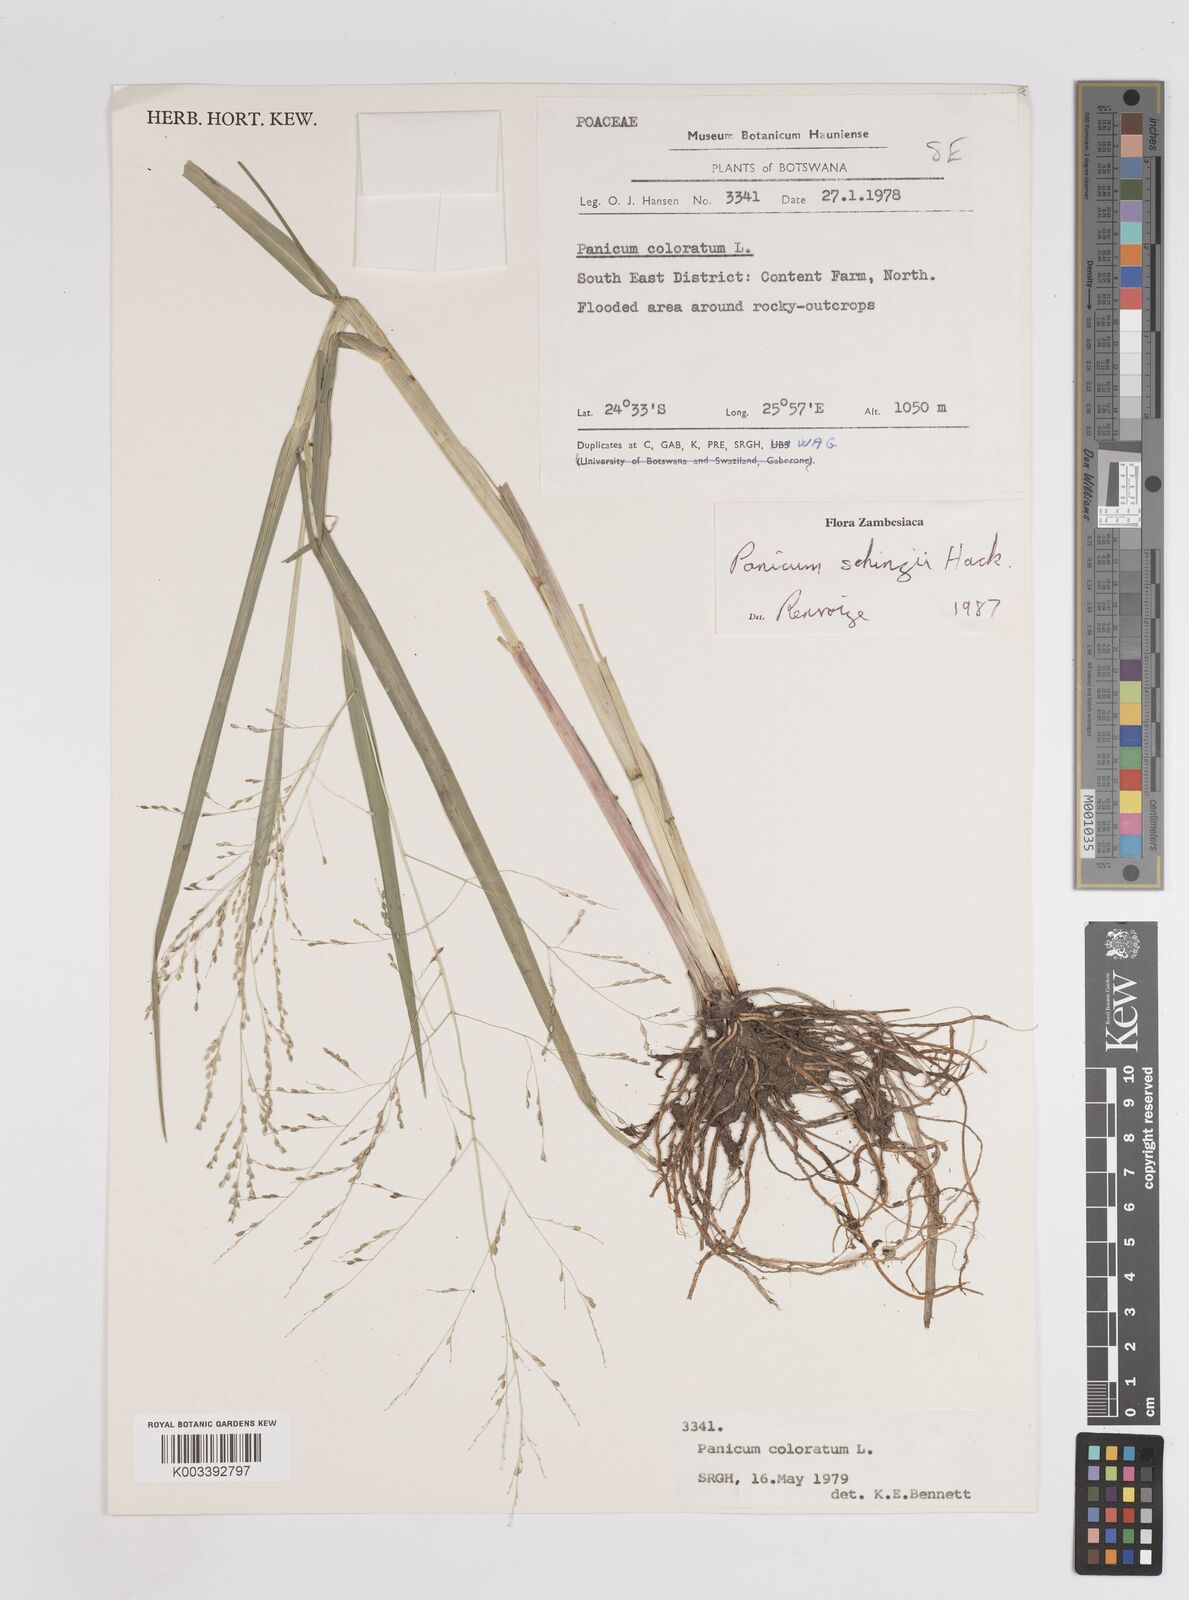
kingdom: Plantae
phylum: Tracheophyta
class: Liliopsida
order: Poales
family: Poaceae
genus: Panicum
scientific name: Panicum schinzii
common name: Sweet grass
